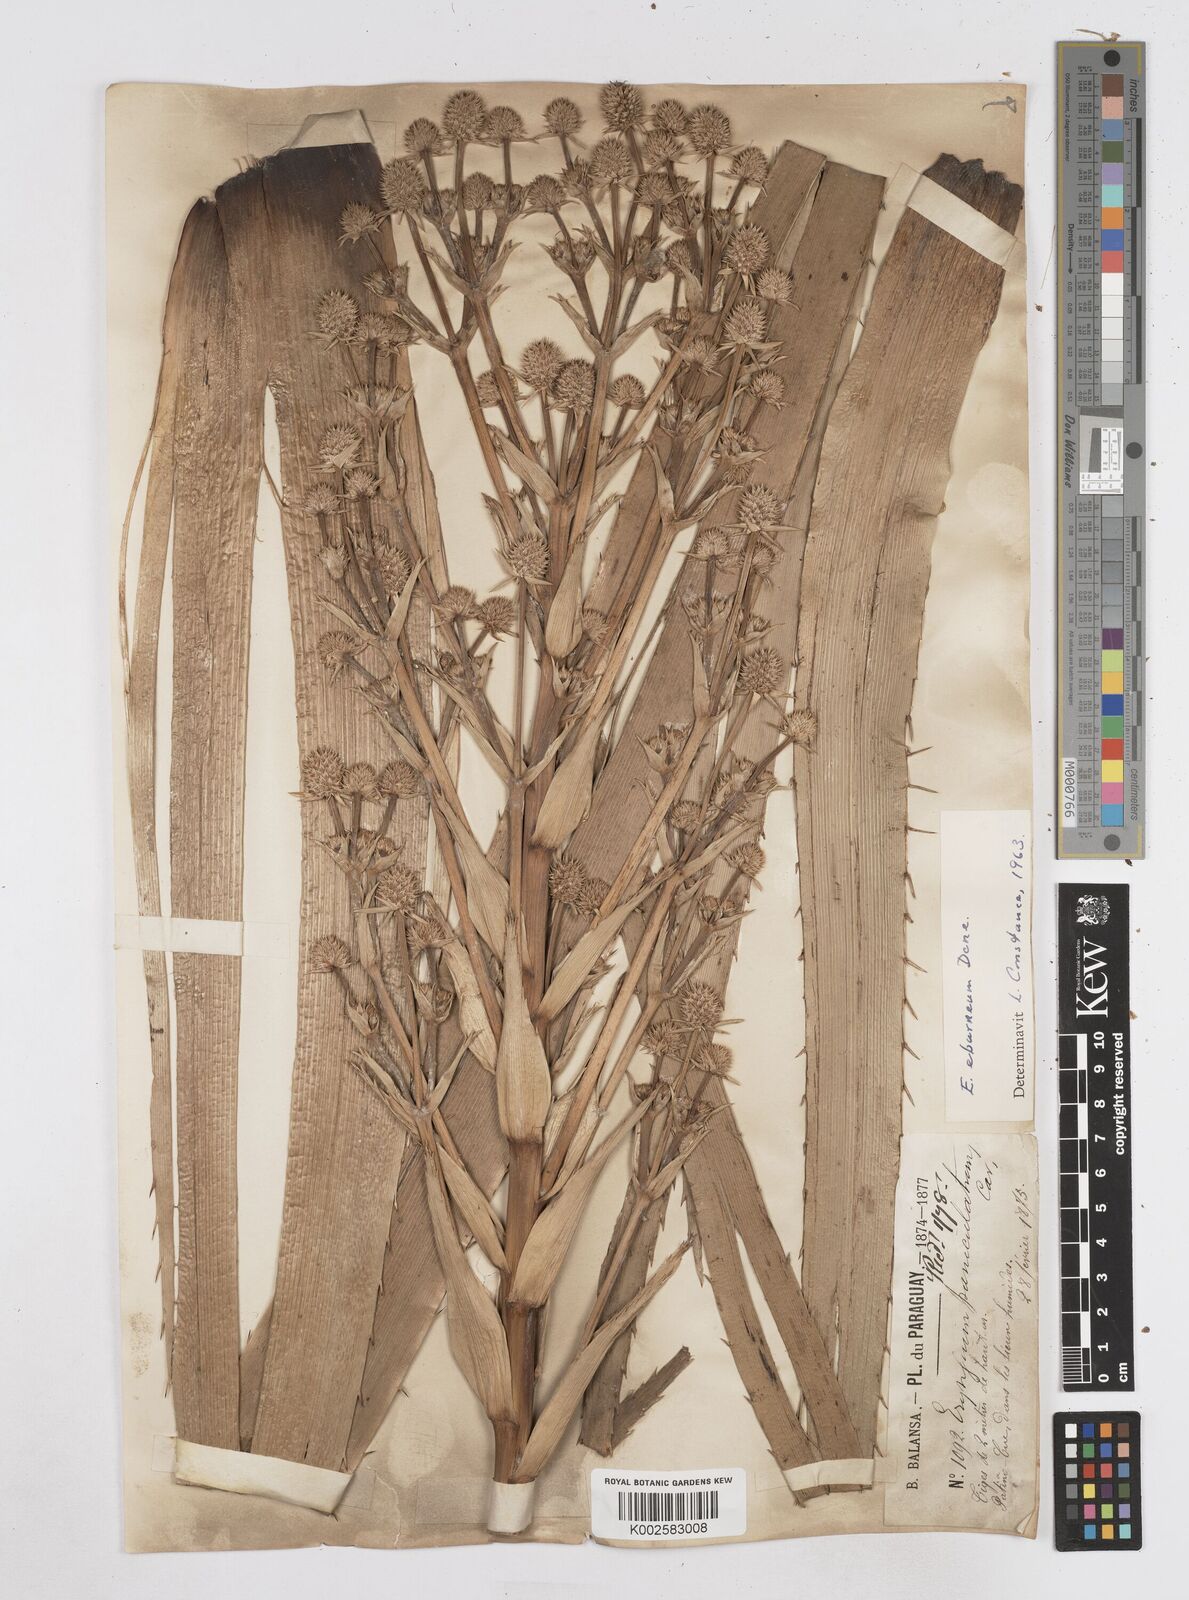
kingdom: Plantae
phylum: Tracheophyta
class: Magnoliopsida
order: Apiales
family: Apiaceae
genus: Eryngium
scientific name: Eryngium eburneum
